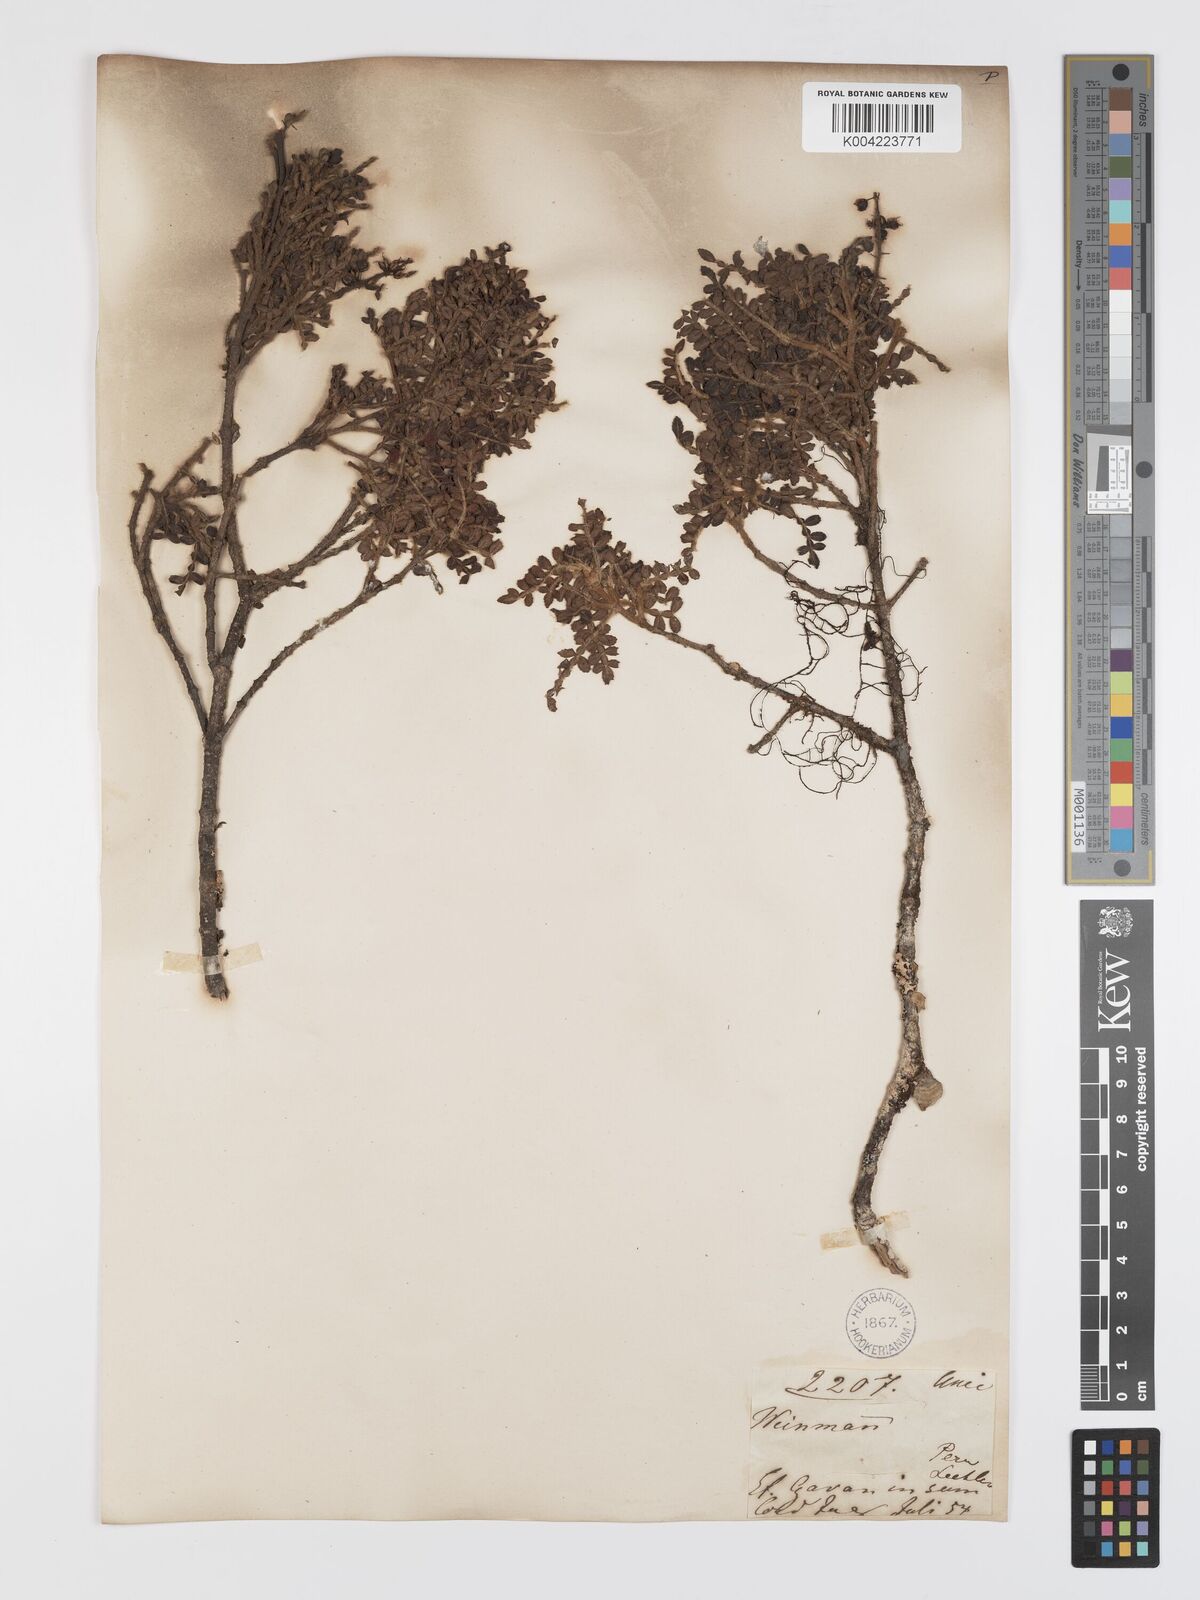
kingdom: Plantae
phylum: Tracheophyta
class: Magnoliopsida
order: Oxalidales
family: Cunoniaceae
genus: Weinmannia
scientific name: Weinmannia tomentosa
